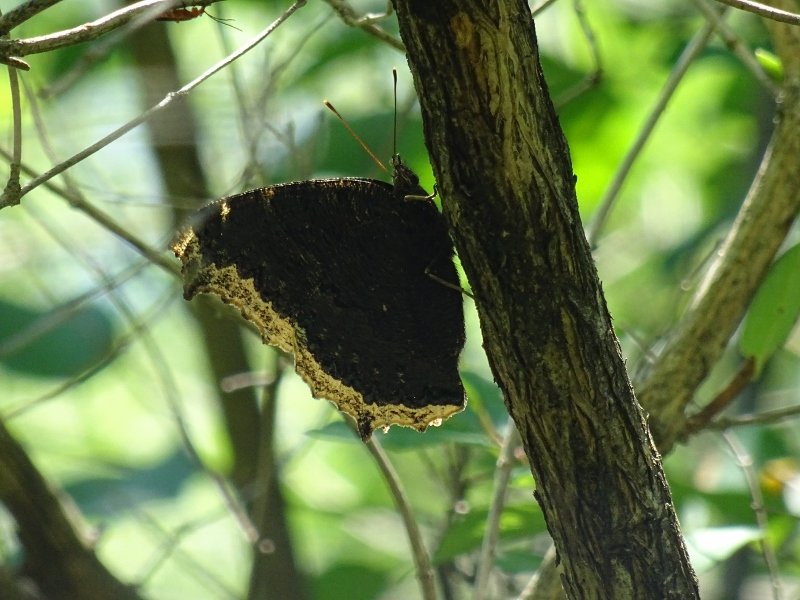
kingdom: Animalia
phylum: Arthropoda
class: Insecta
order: Lepidoptera
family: Nymphalidae
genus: Nymphalis
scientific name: Nymphalis antiopa
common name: Mourning Cloak
